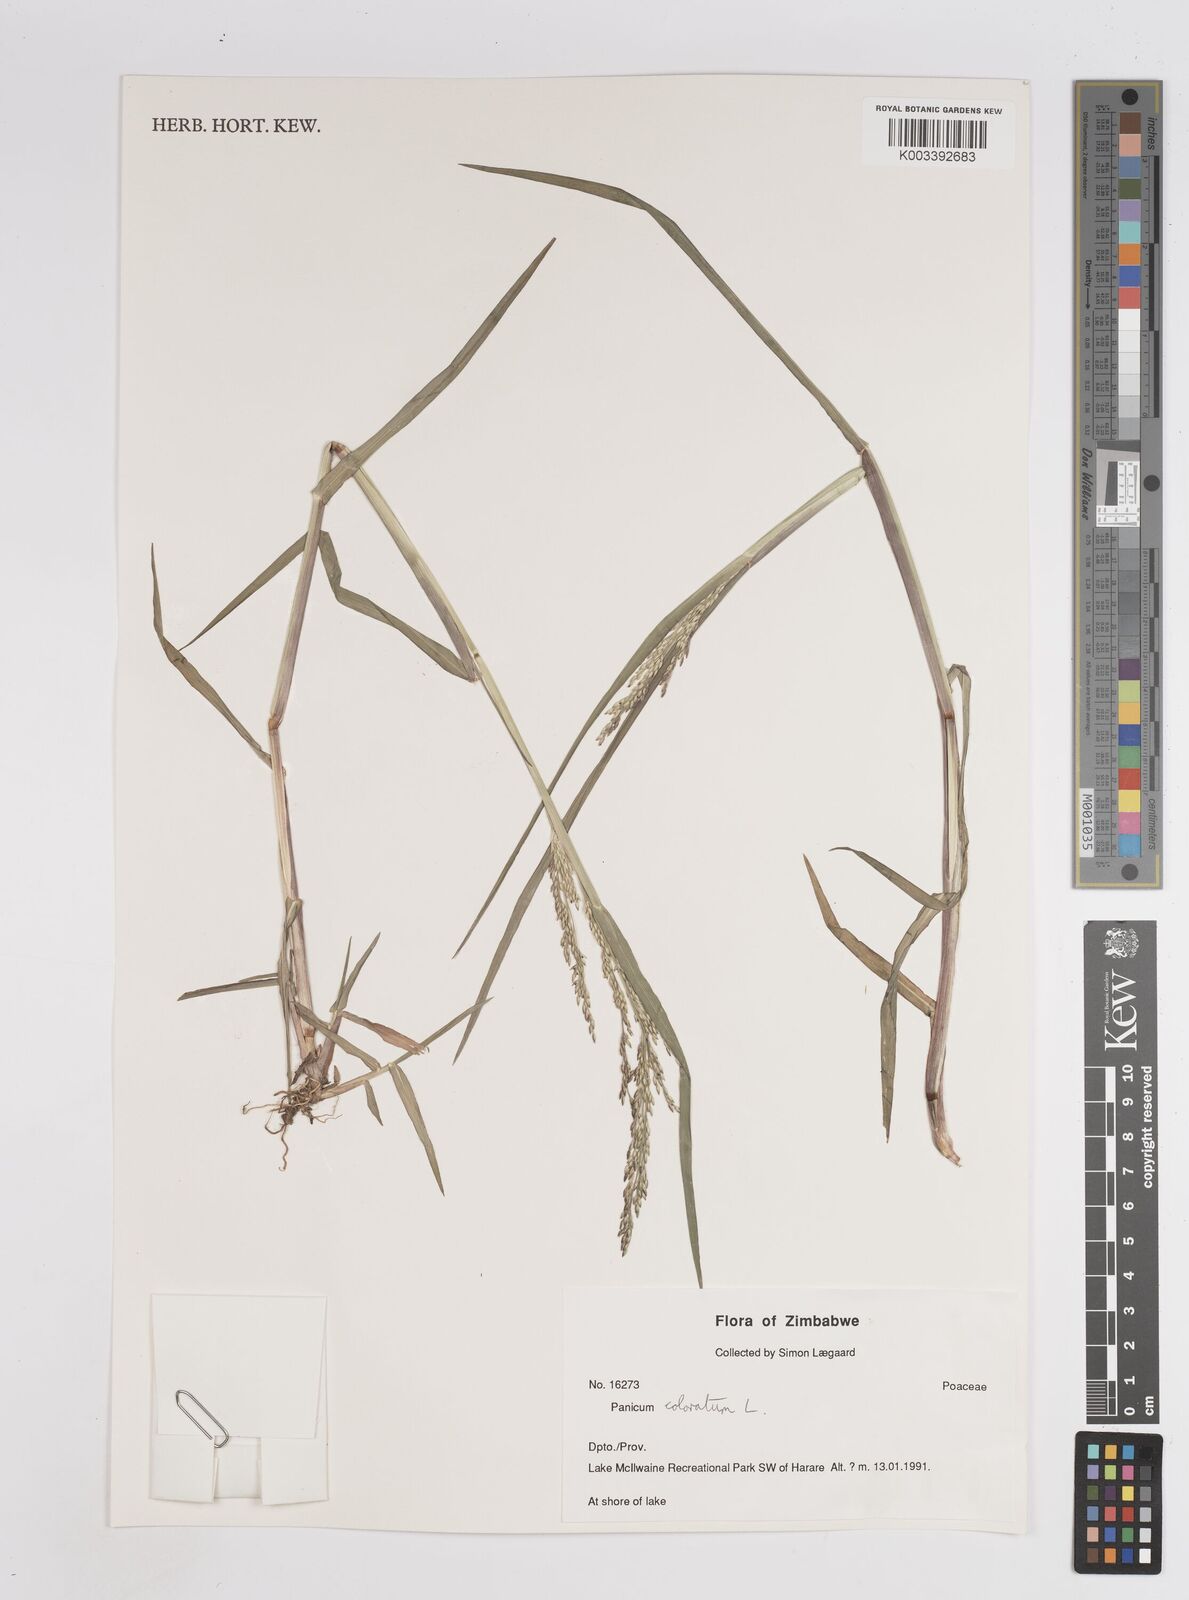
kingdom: Plantae
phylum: Tracheophyta
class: Liliopsida
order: Poales
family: Poaceae
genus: Panicum
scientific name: Panicum
